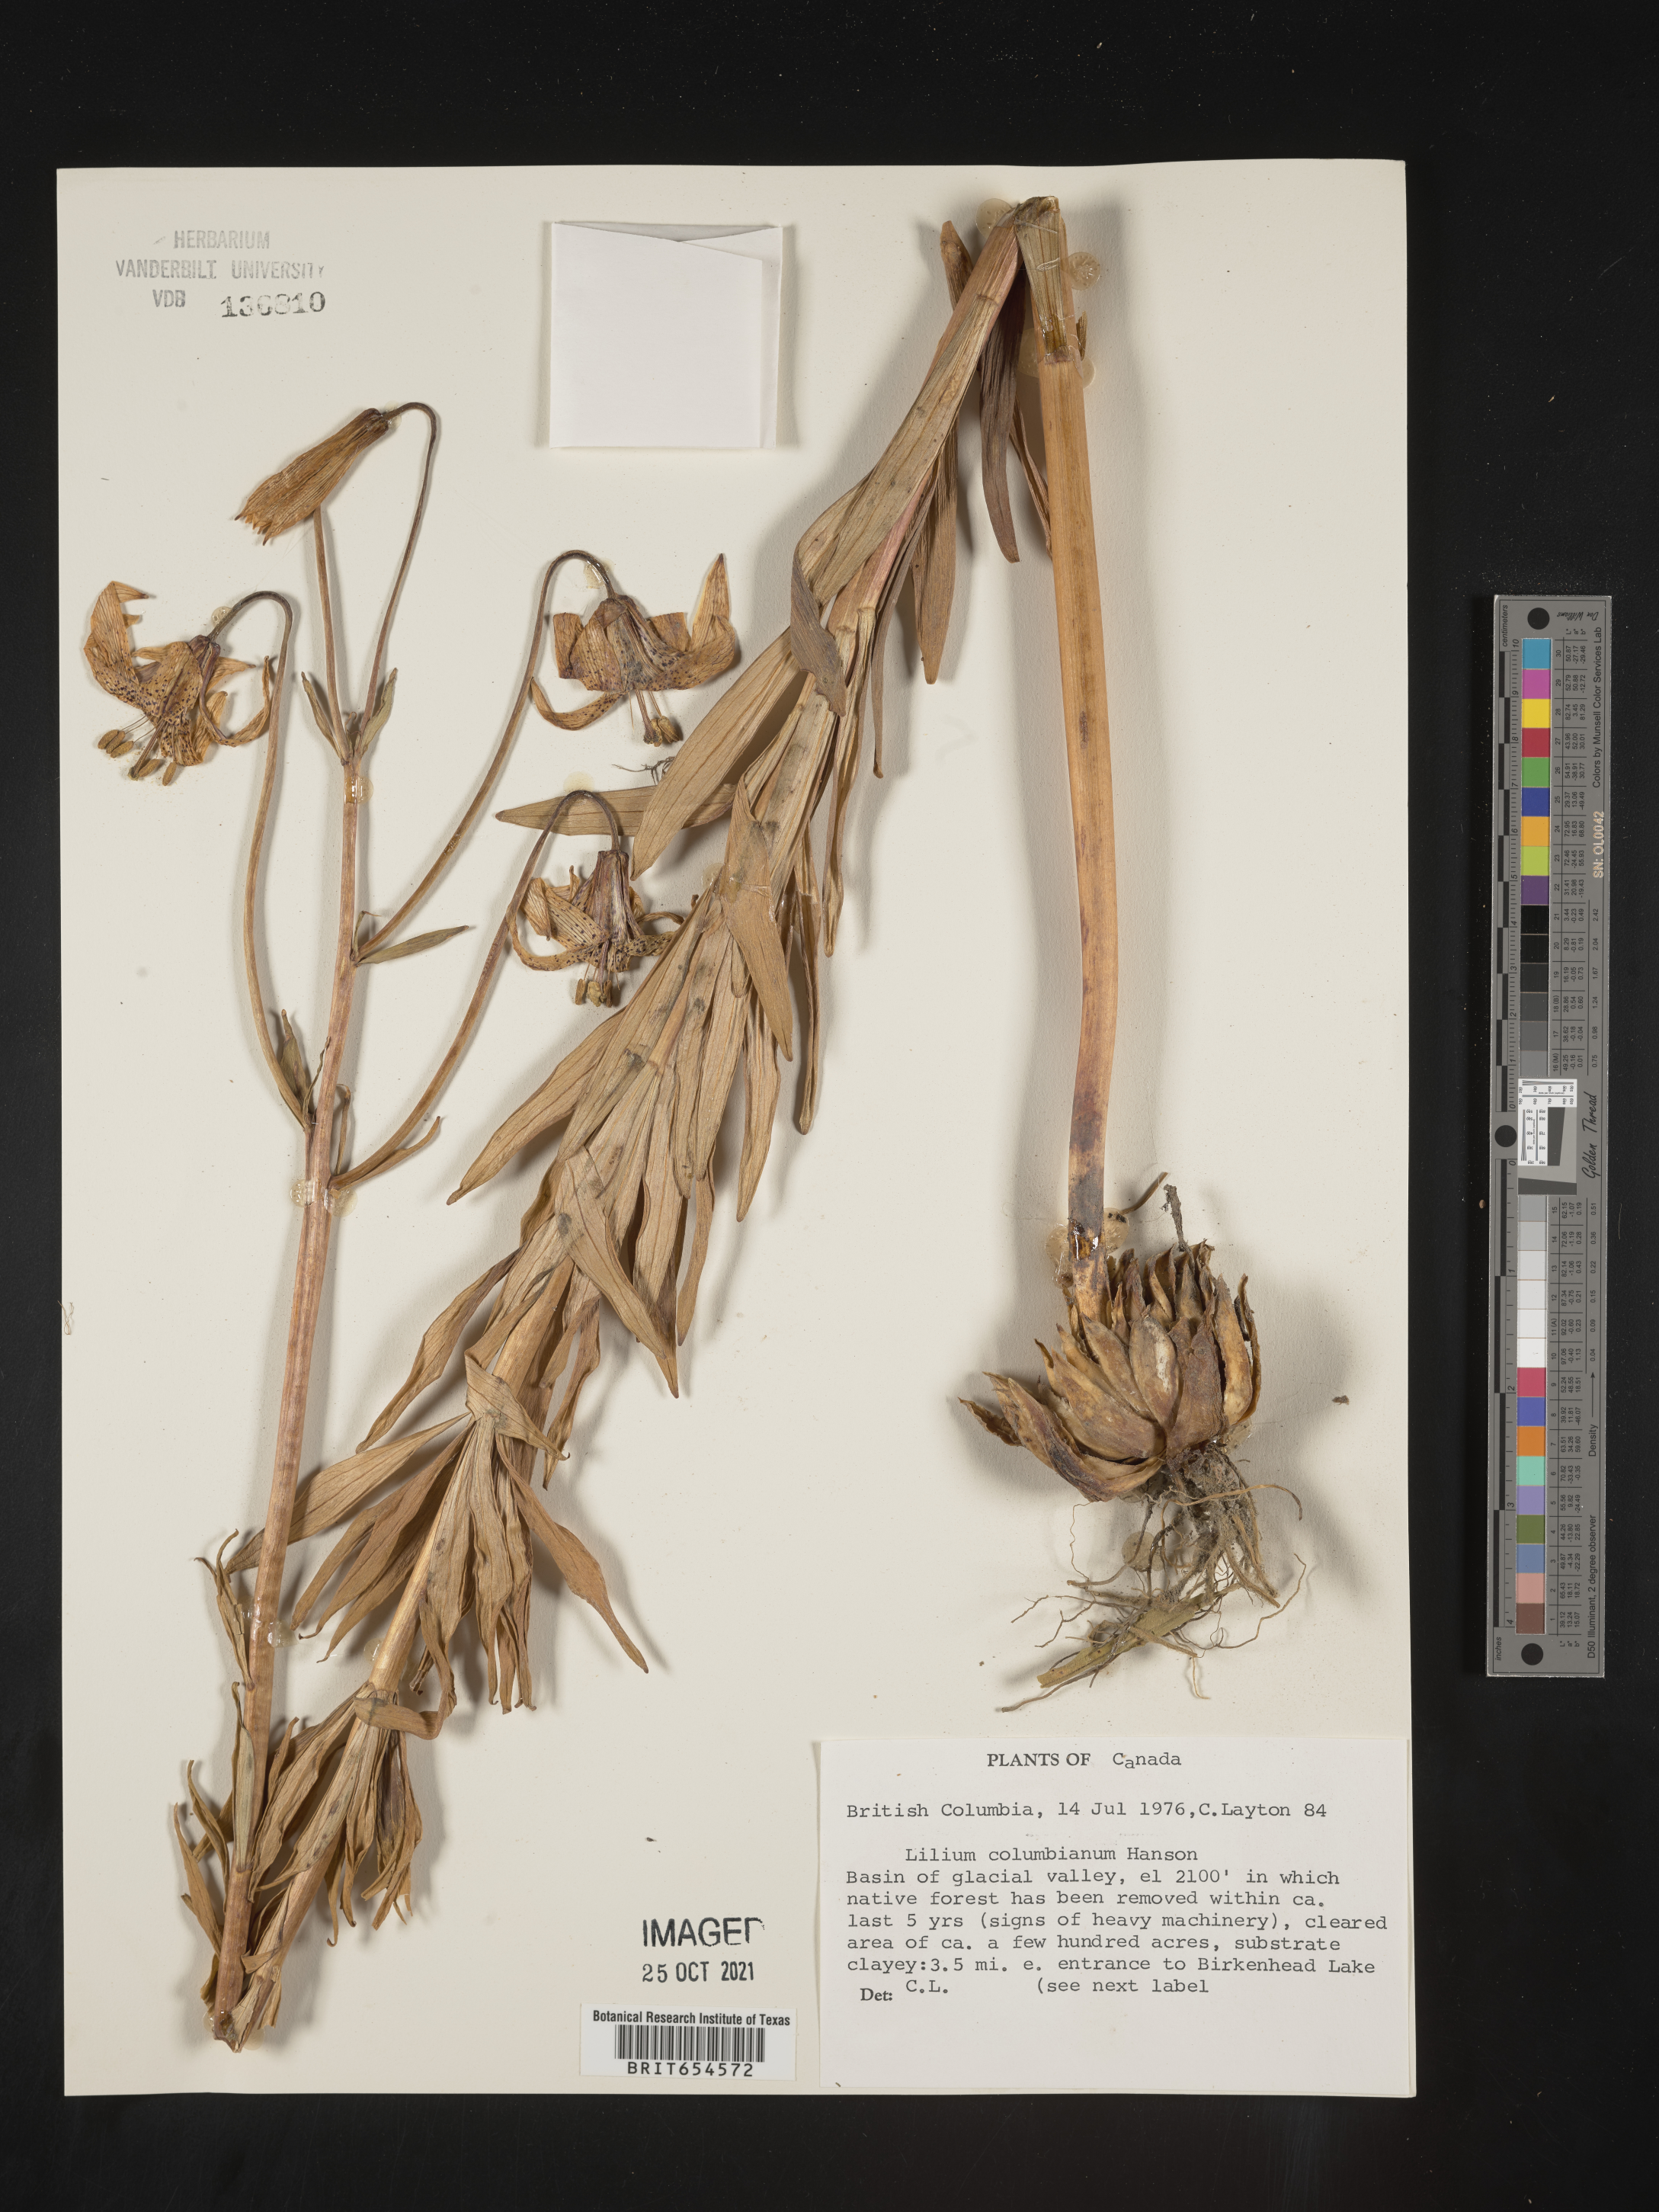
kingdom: Plantae
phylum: Tracheophyta
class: Liliopsida
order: Liliales
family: Liliaceae
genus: Lilium
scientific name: Lilium
